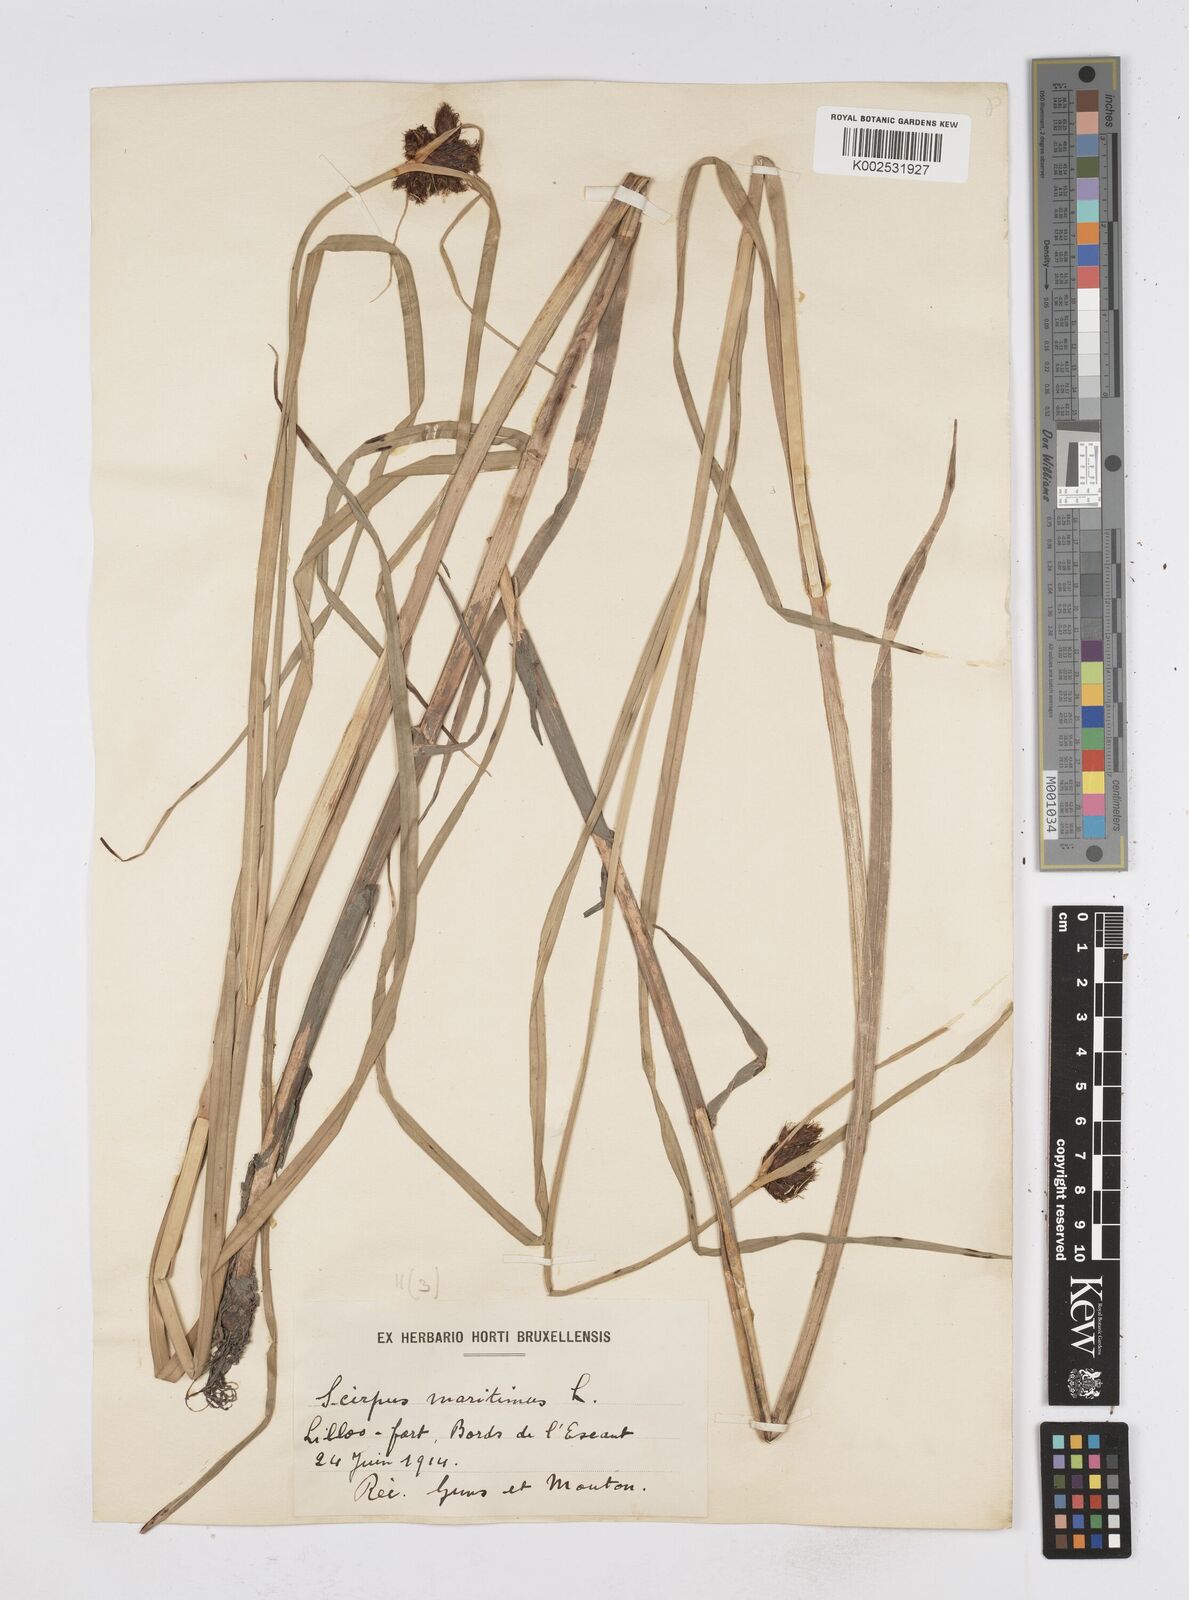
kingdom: Plantae
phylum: Tracheophyta
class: Liliopsida
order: Poales
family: Cyperaceae
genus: Bolboschoenus
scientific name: Bolboschoenus maritimus
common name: Sea club-rush
